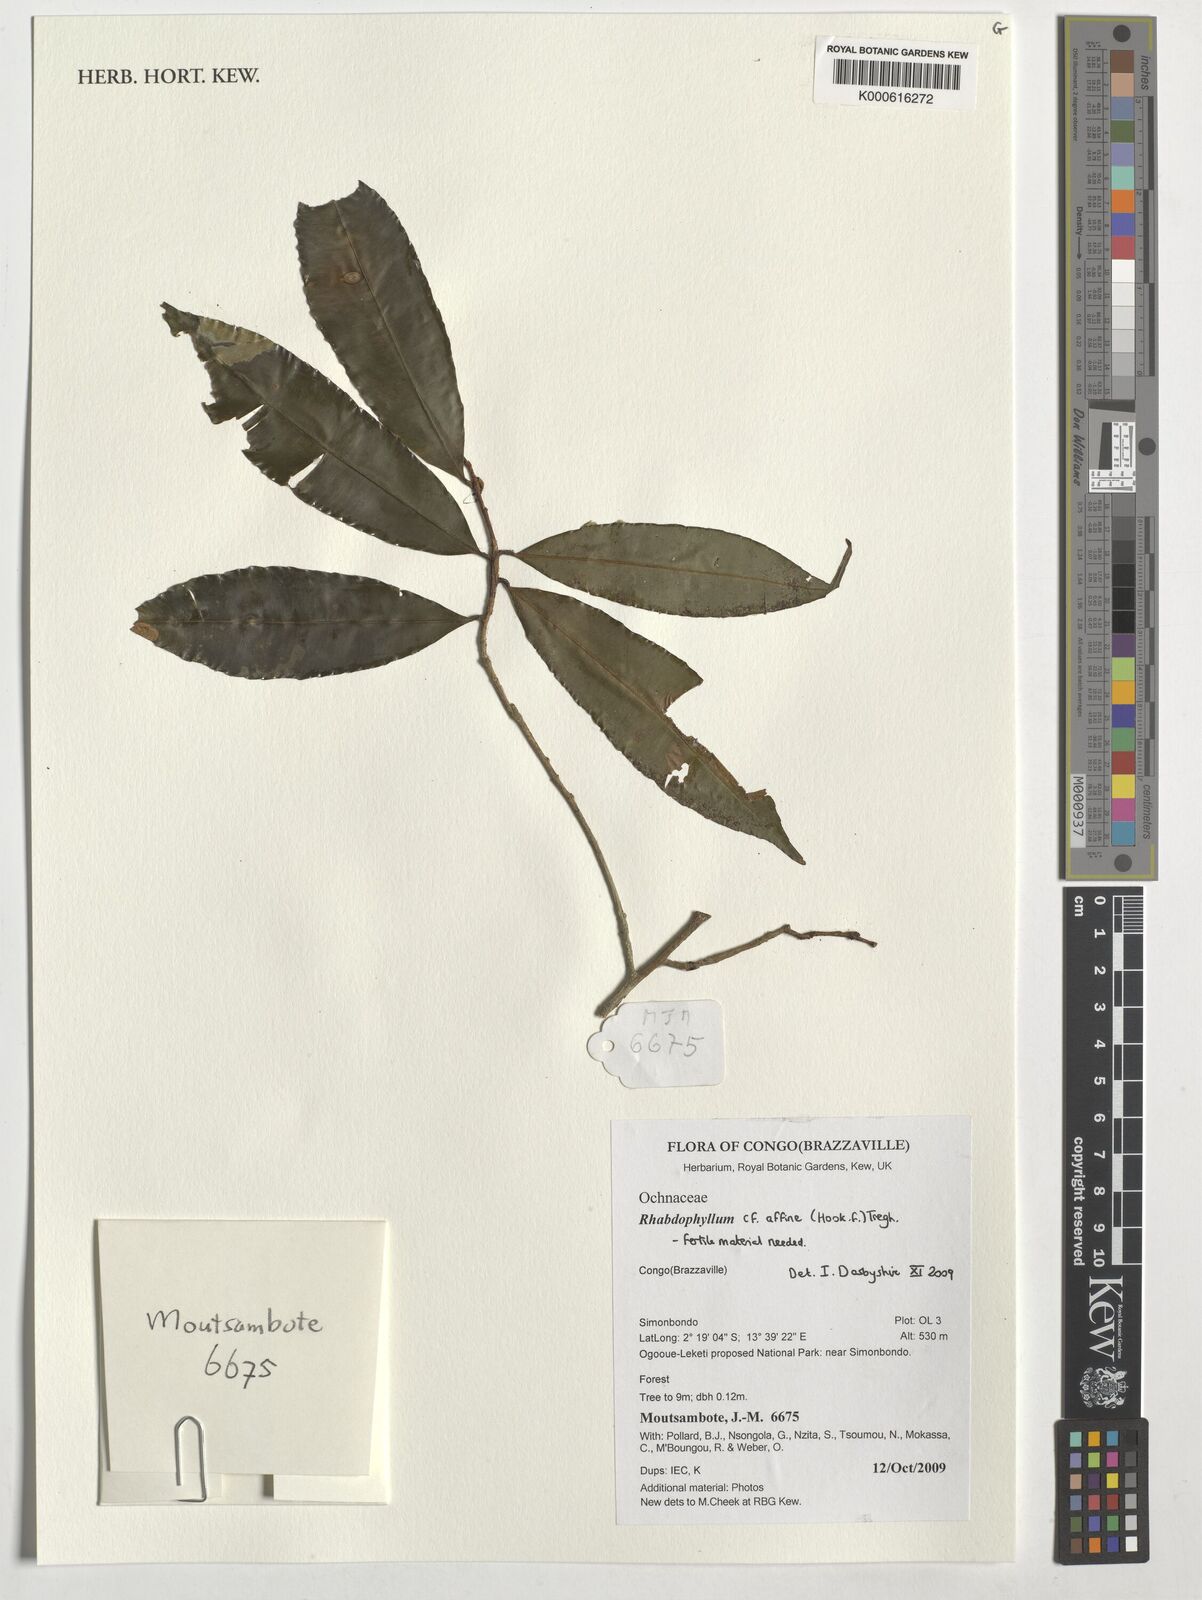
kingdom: Plantae
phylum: Tracheophyta
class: Magnoliopsida
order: Malpighiales
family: Ochnaceae
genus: Rhabdophyllum
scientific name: Rhabdophyllum affine
